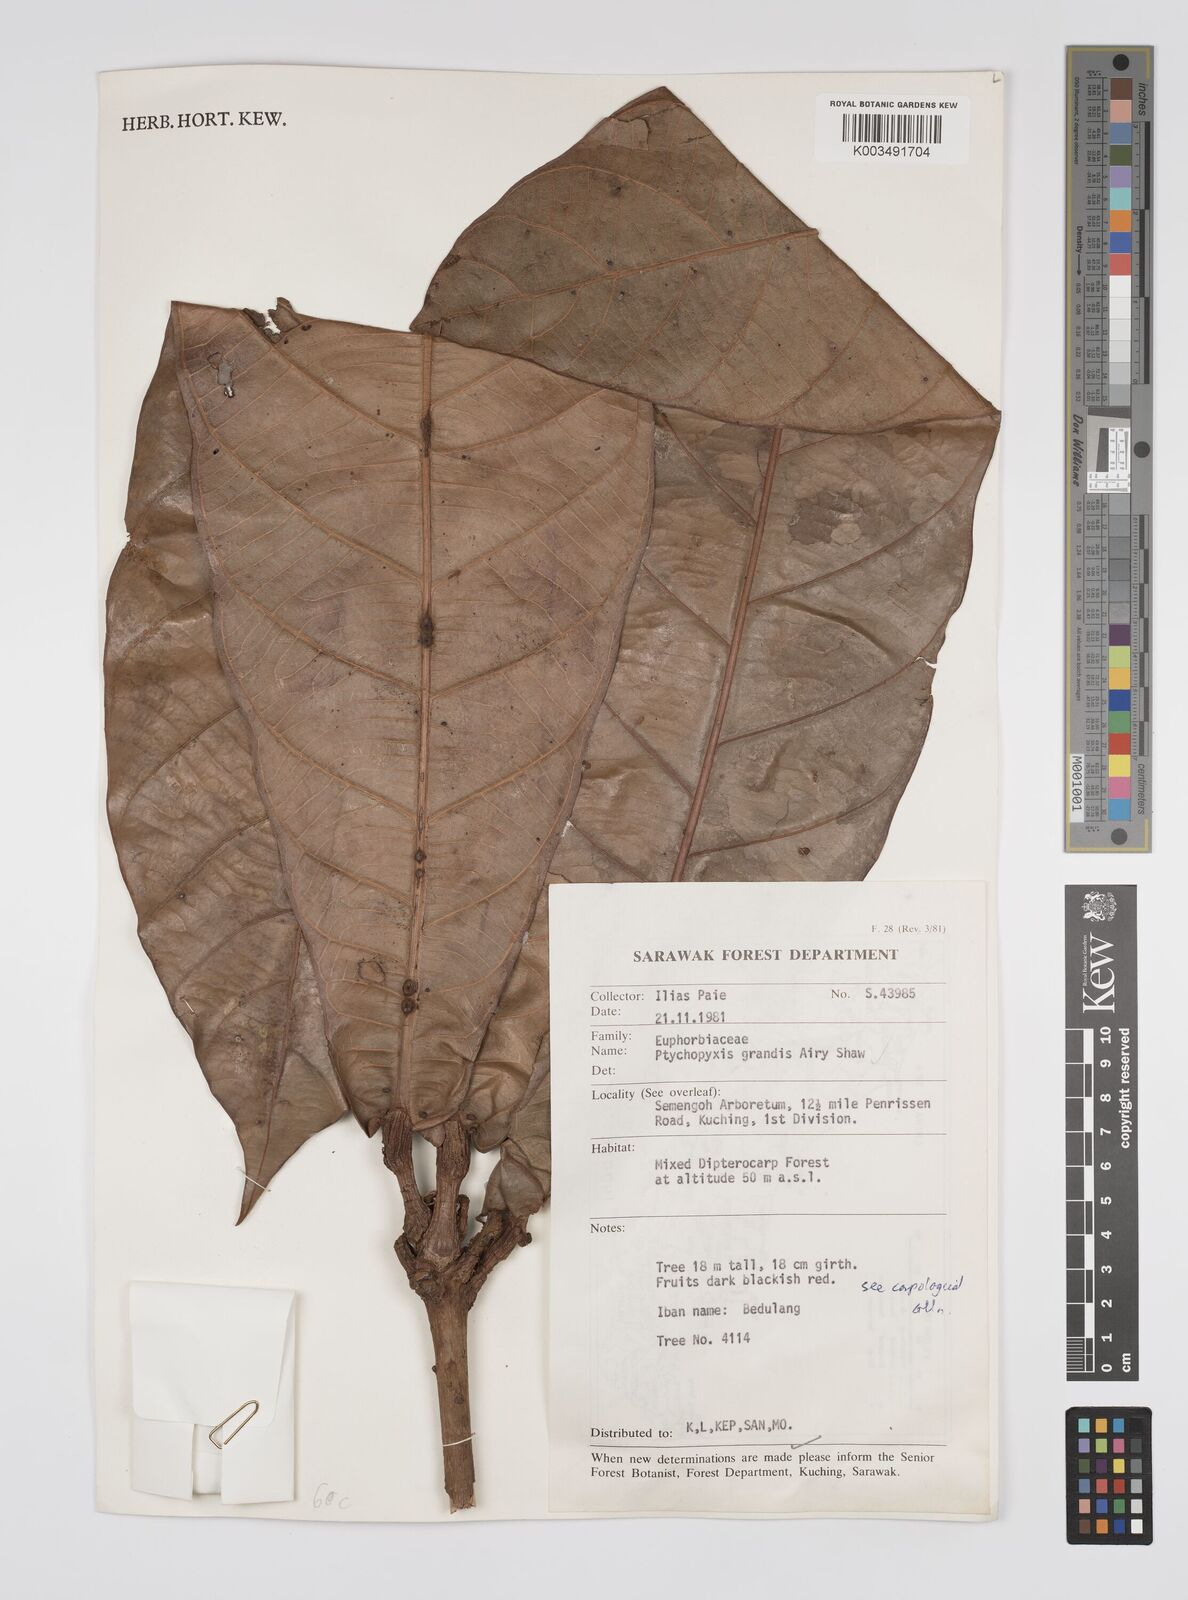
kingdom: Plantae
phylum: Tracheophyta
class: Magnoliopsida
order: Malpighiales
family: Euphorbiaceae
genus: Ptychopyxis
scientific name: Ptychopyxis grandis
